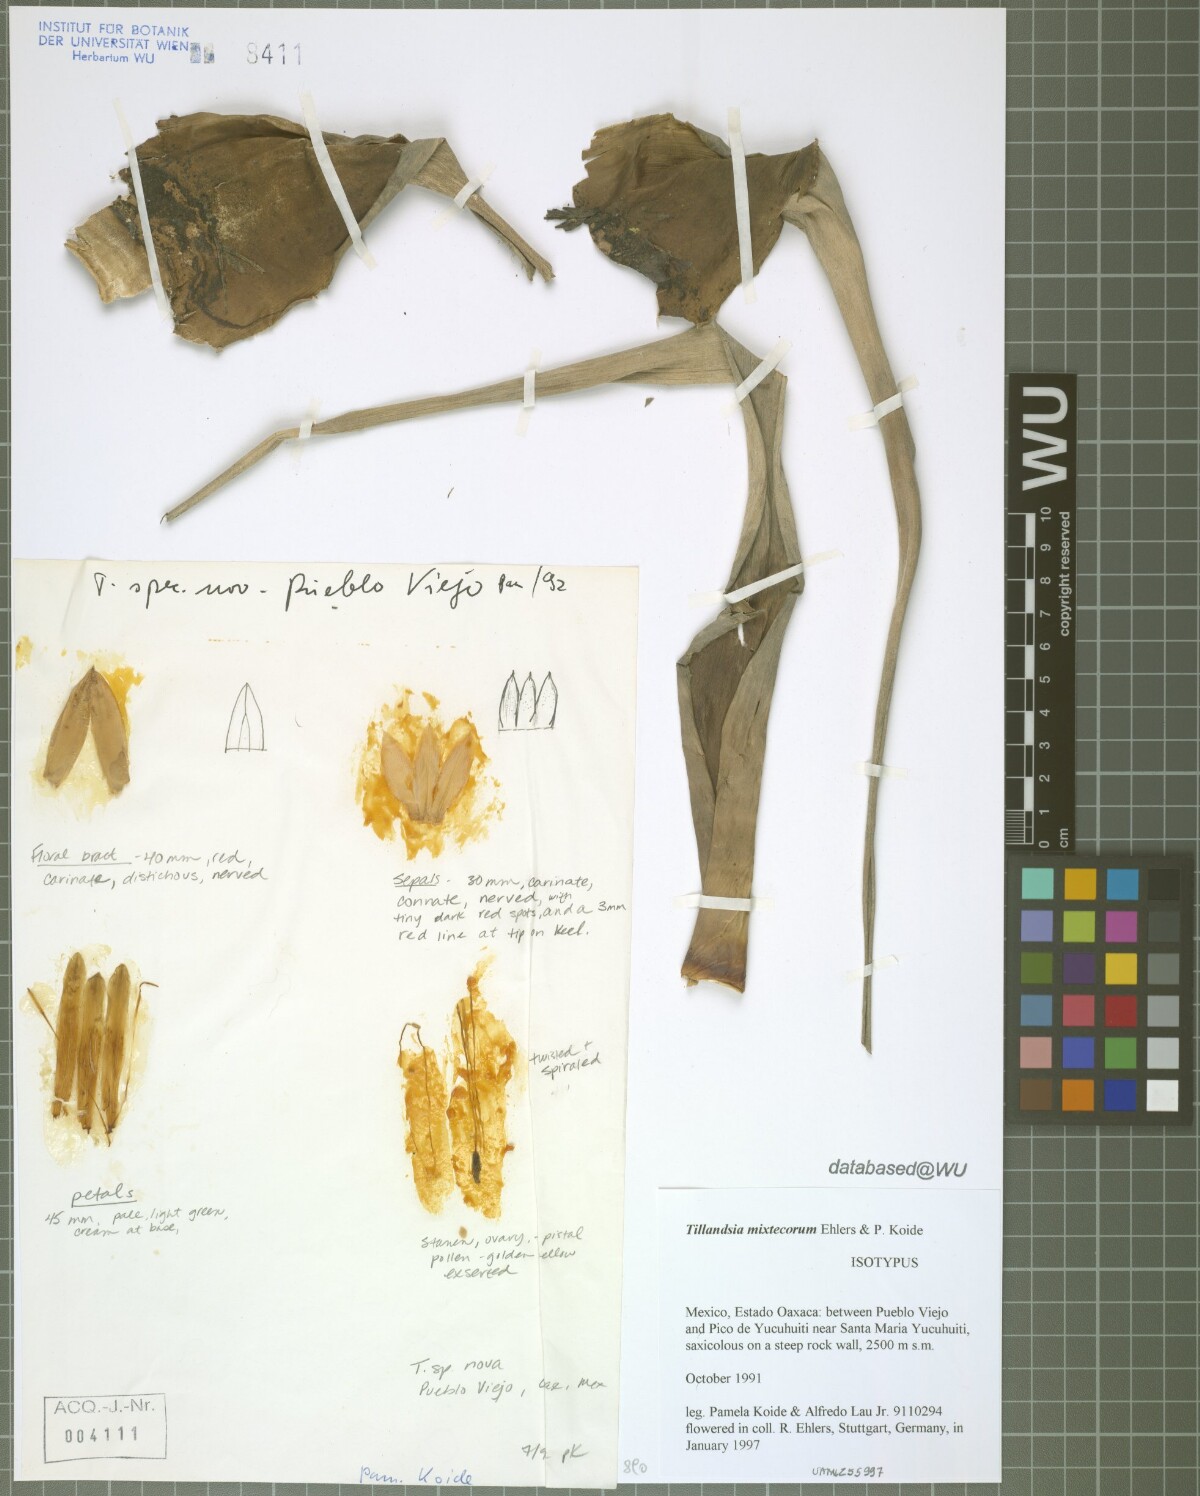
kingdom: Plantae
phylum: Tracheophyta
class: Liliopsida
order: Poales
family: Bromeliaceae
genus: Tillandsia
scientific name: Tillandsia mixtecorum
